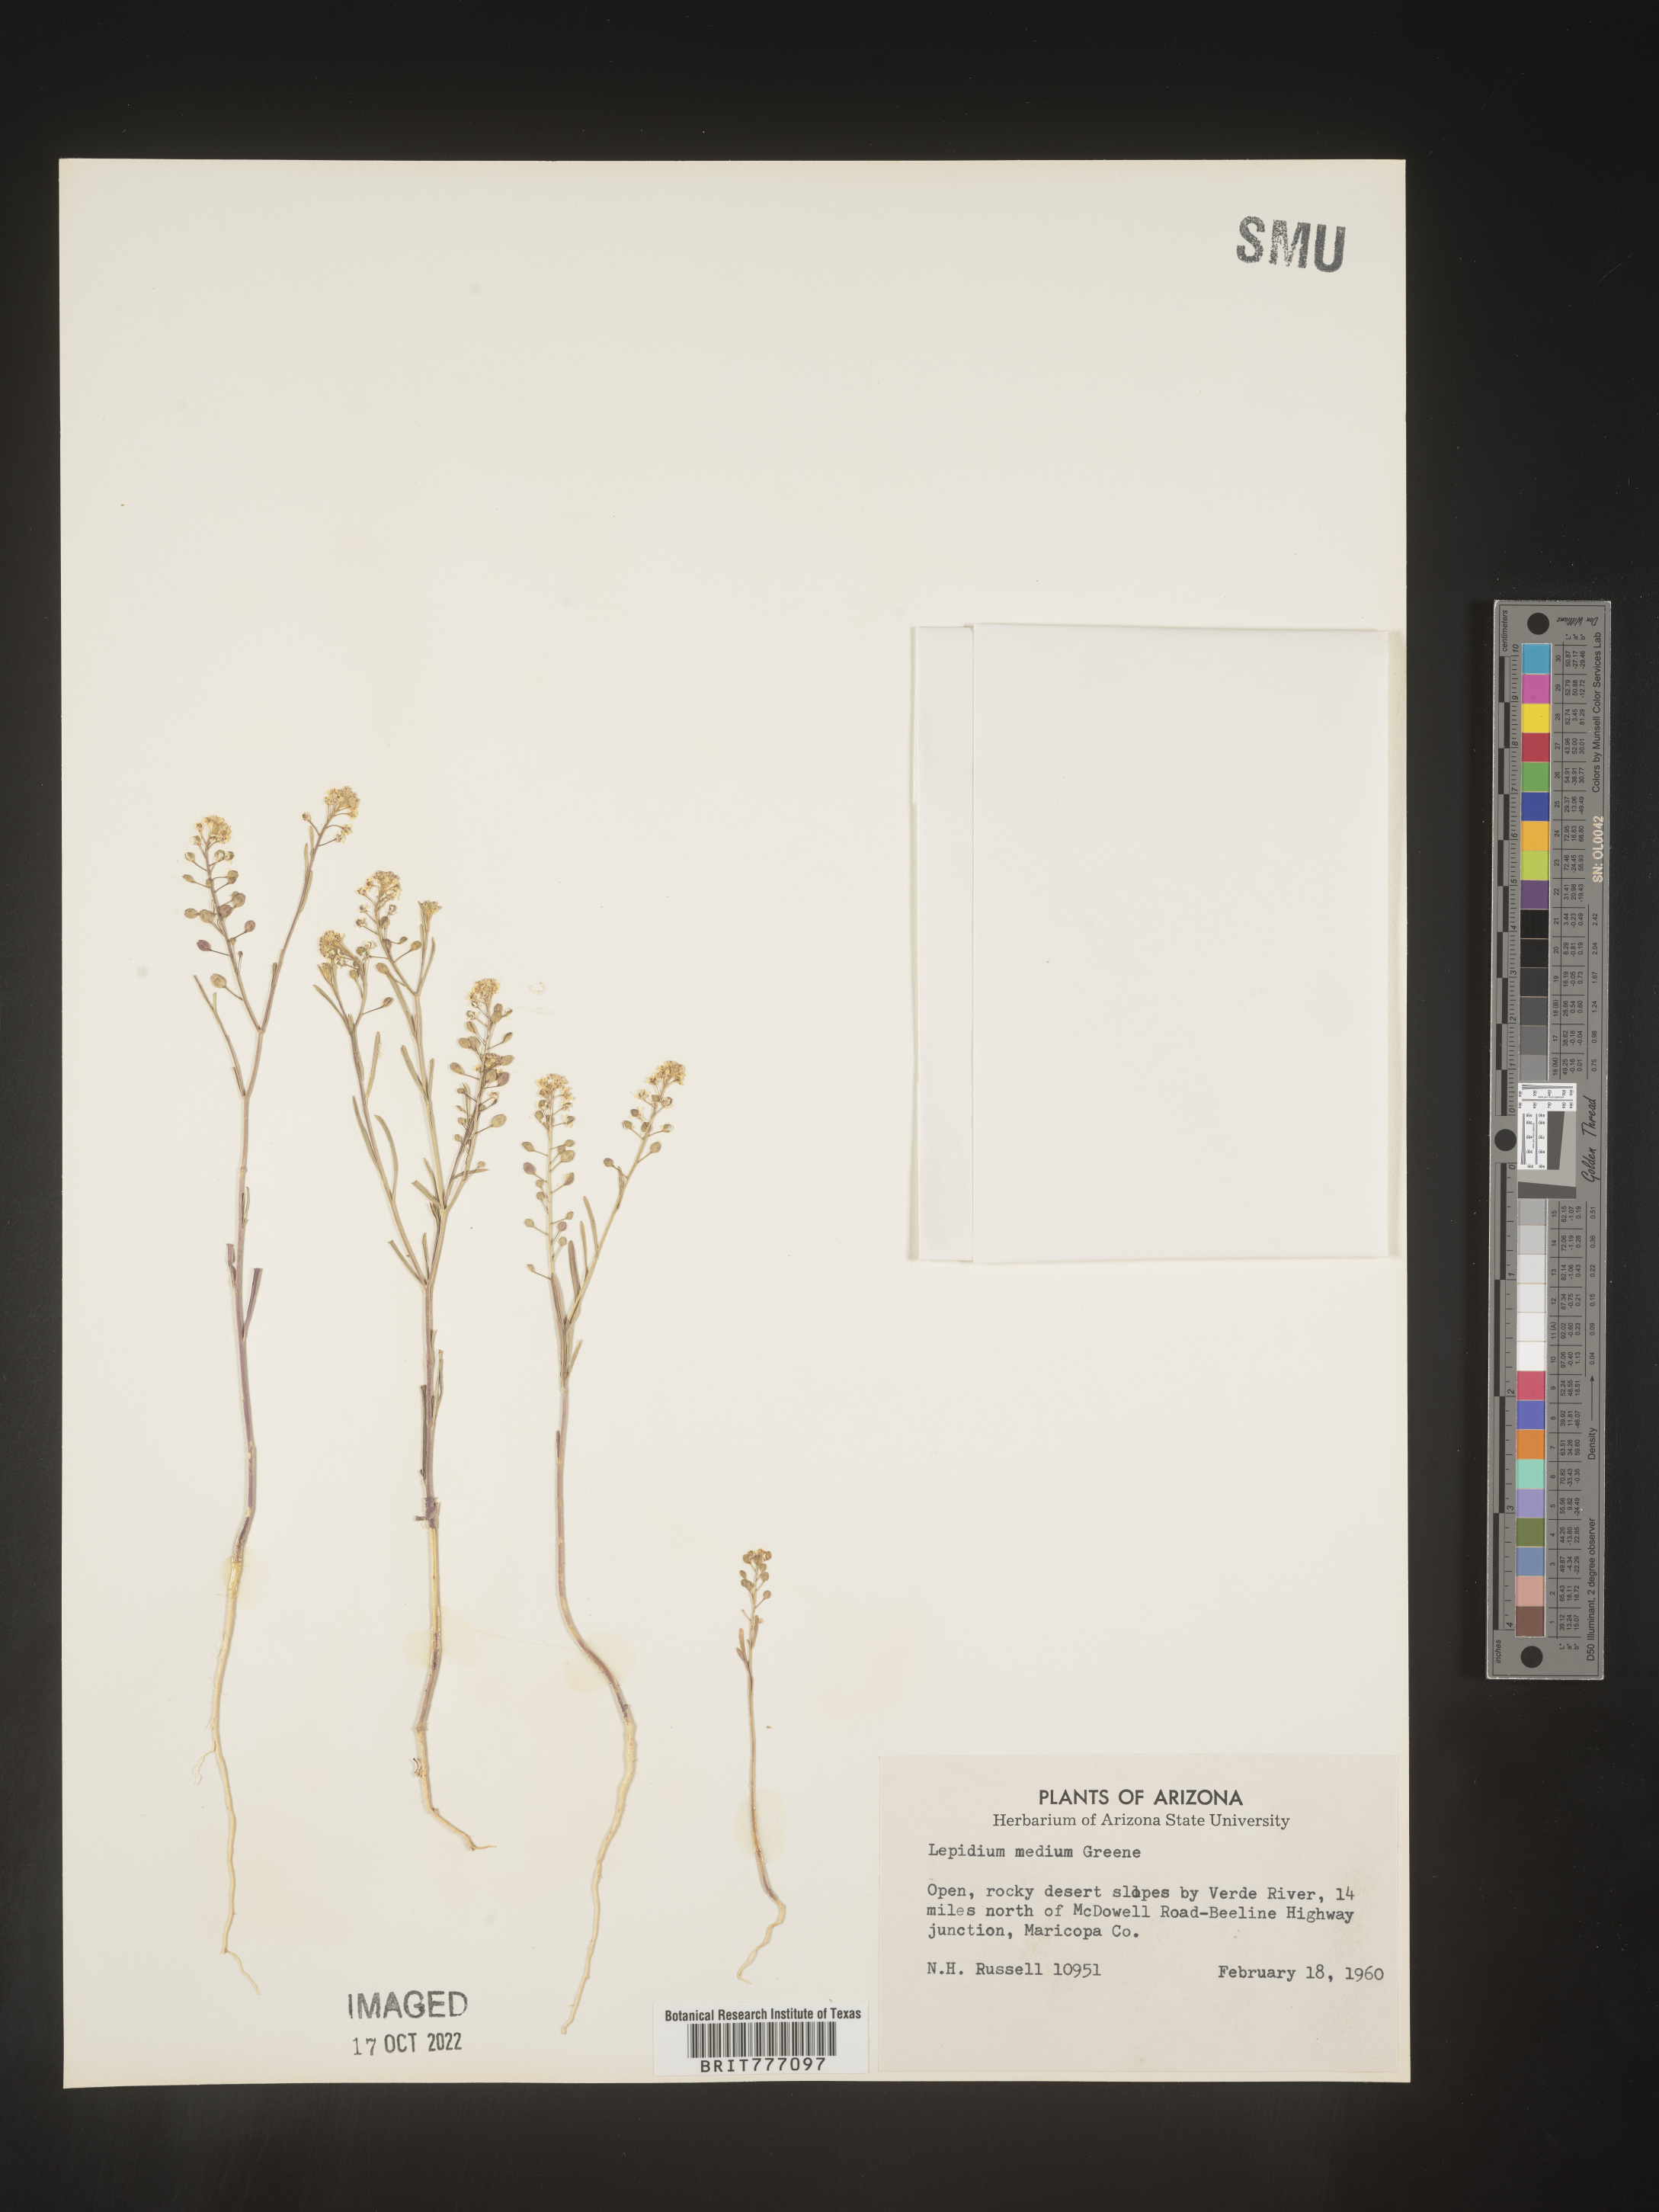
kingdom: Plantae
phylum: Tracheophyta
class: Magnoliopsida
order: Brassicales
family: Brassicaceae
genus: Lepidium
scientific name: Lepidium
